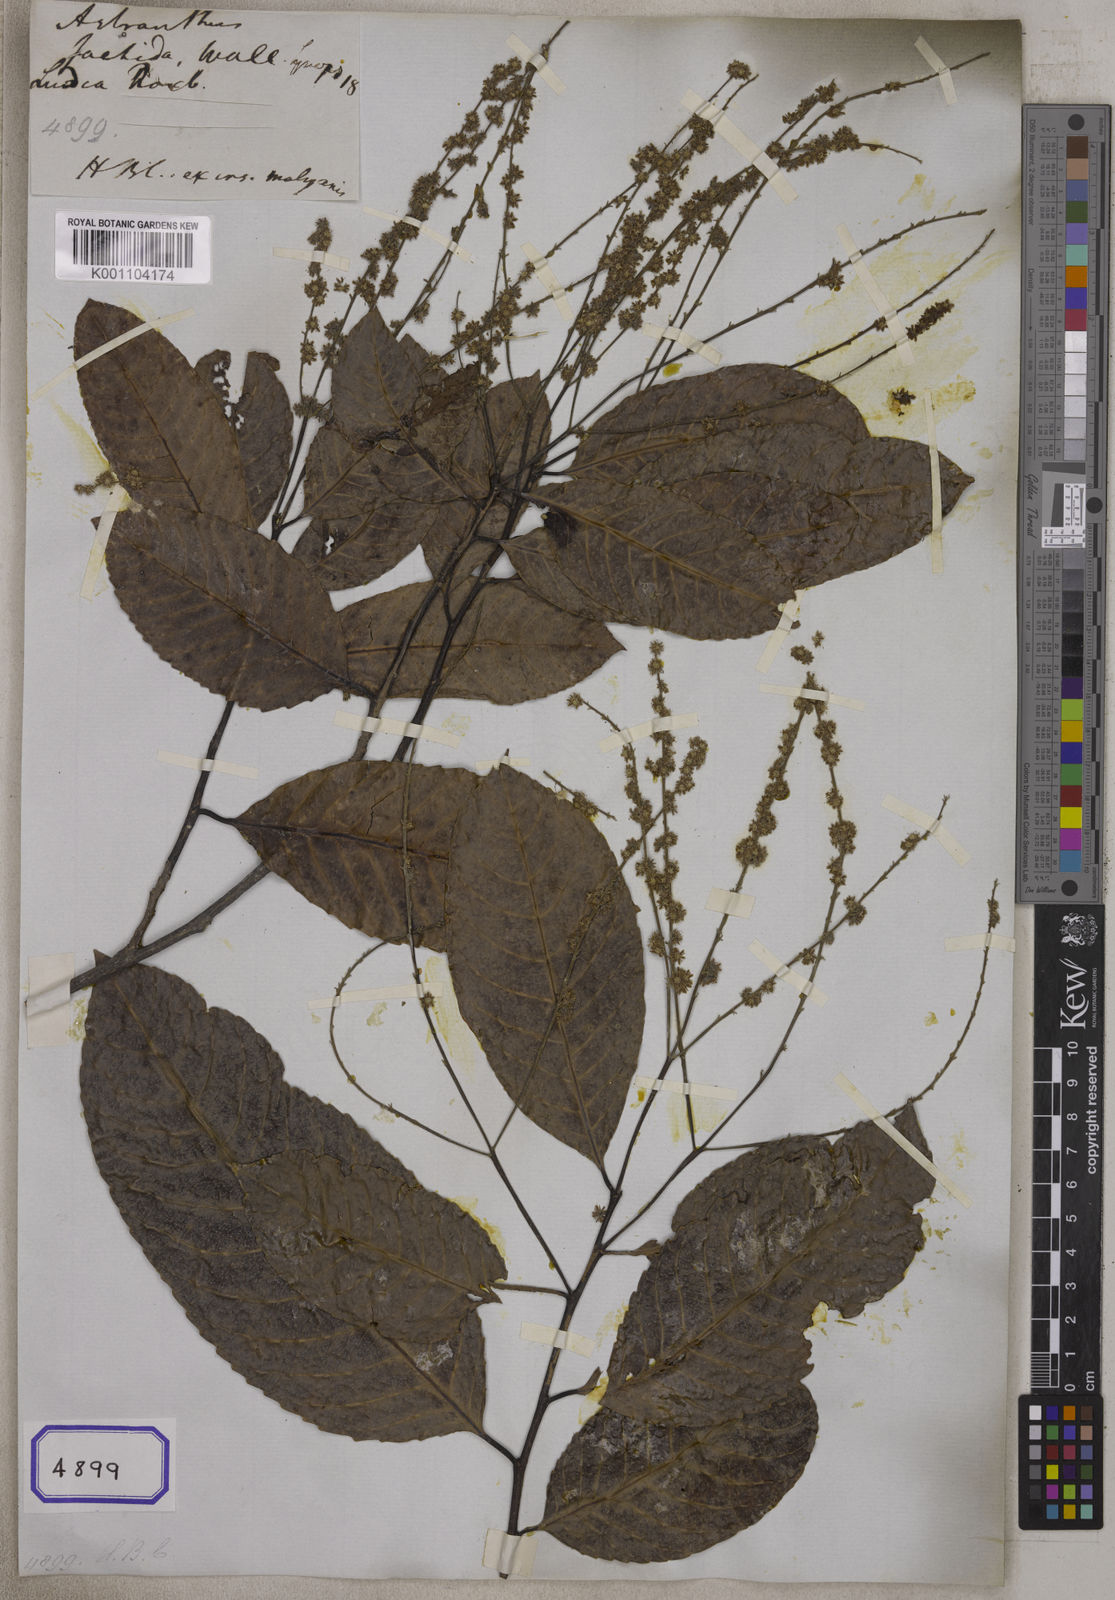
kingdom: Plantae
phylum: Tracheophyta
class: Magnoliopsida
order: Malpighiales
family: Salicaceae
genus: Homalium
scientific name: Homalium foetidum
